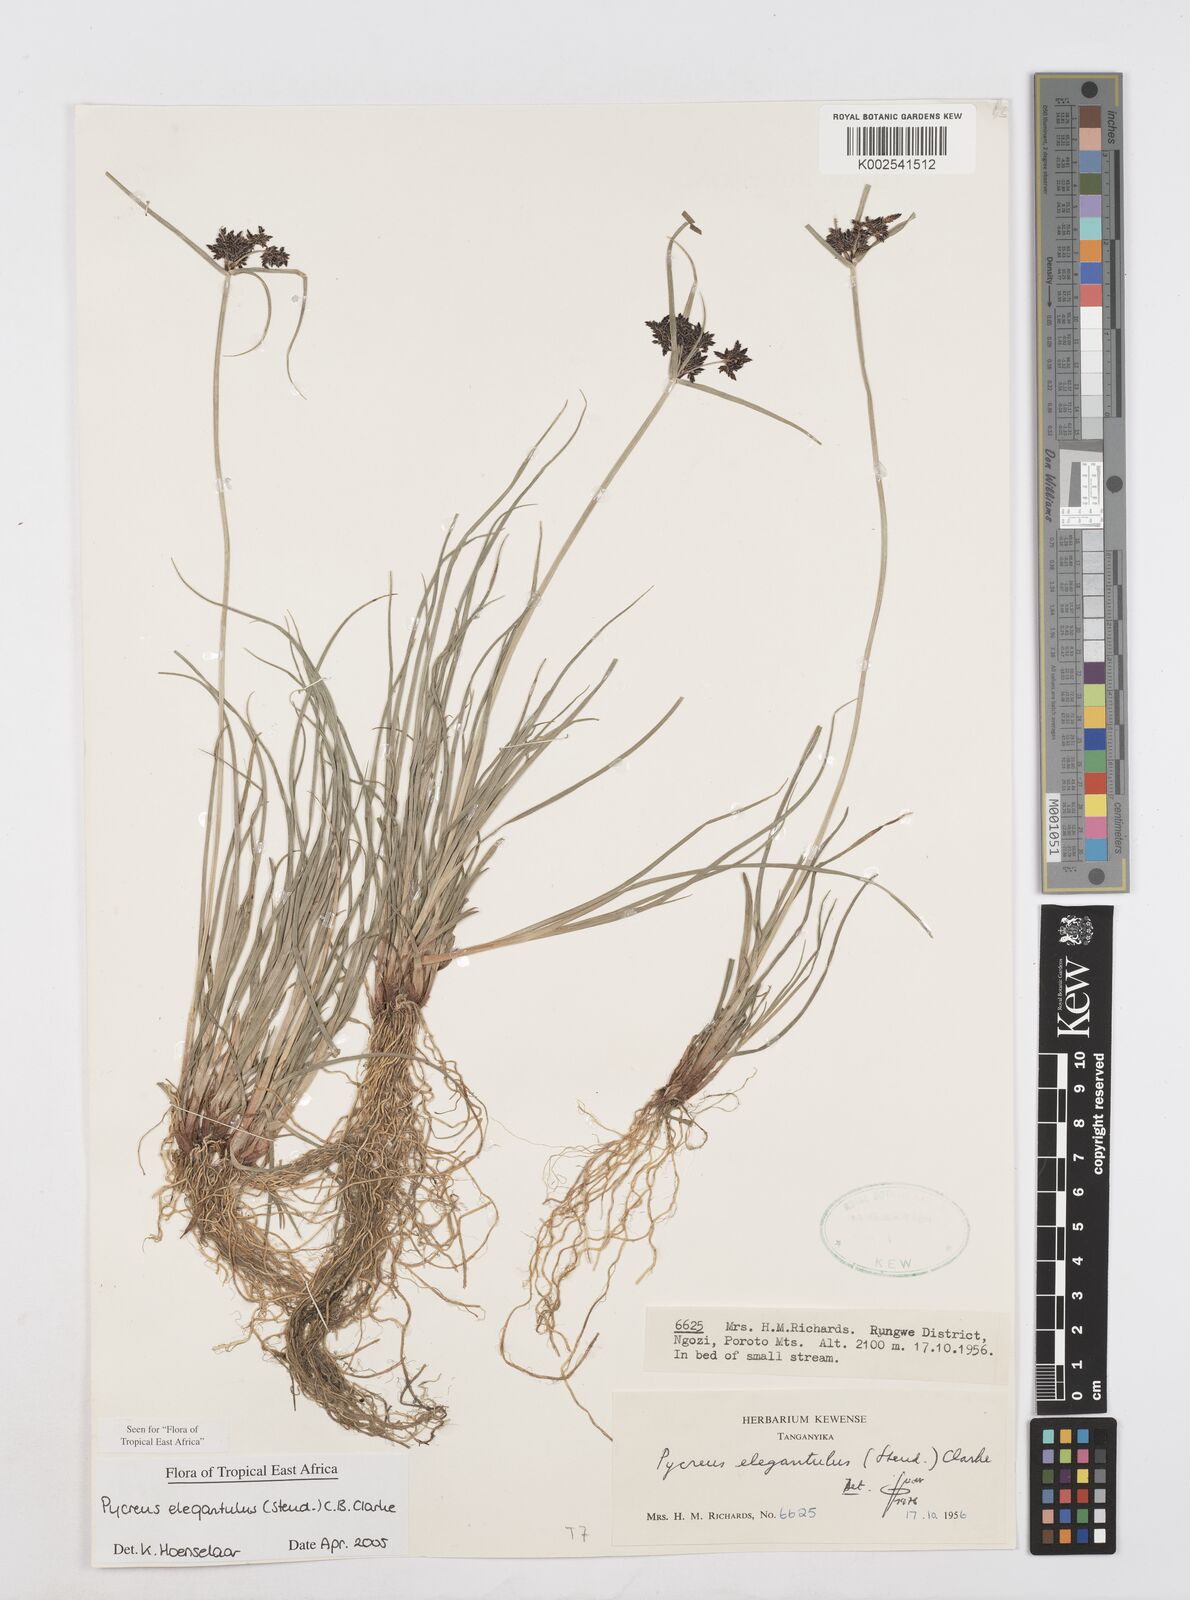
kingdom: Plantae
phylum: Tracheophyta
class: Liliopsida
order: Poales
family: Cyperaceae
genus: Cyperus
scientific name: Cyperus elegantulus
